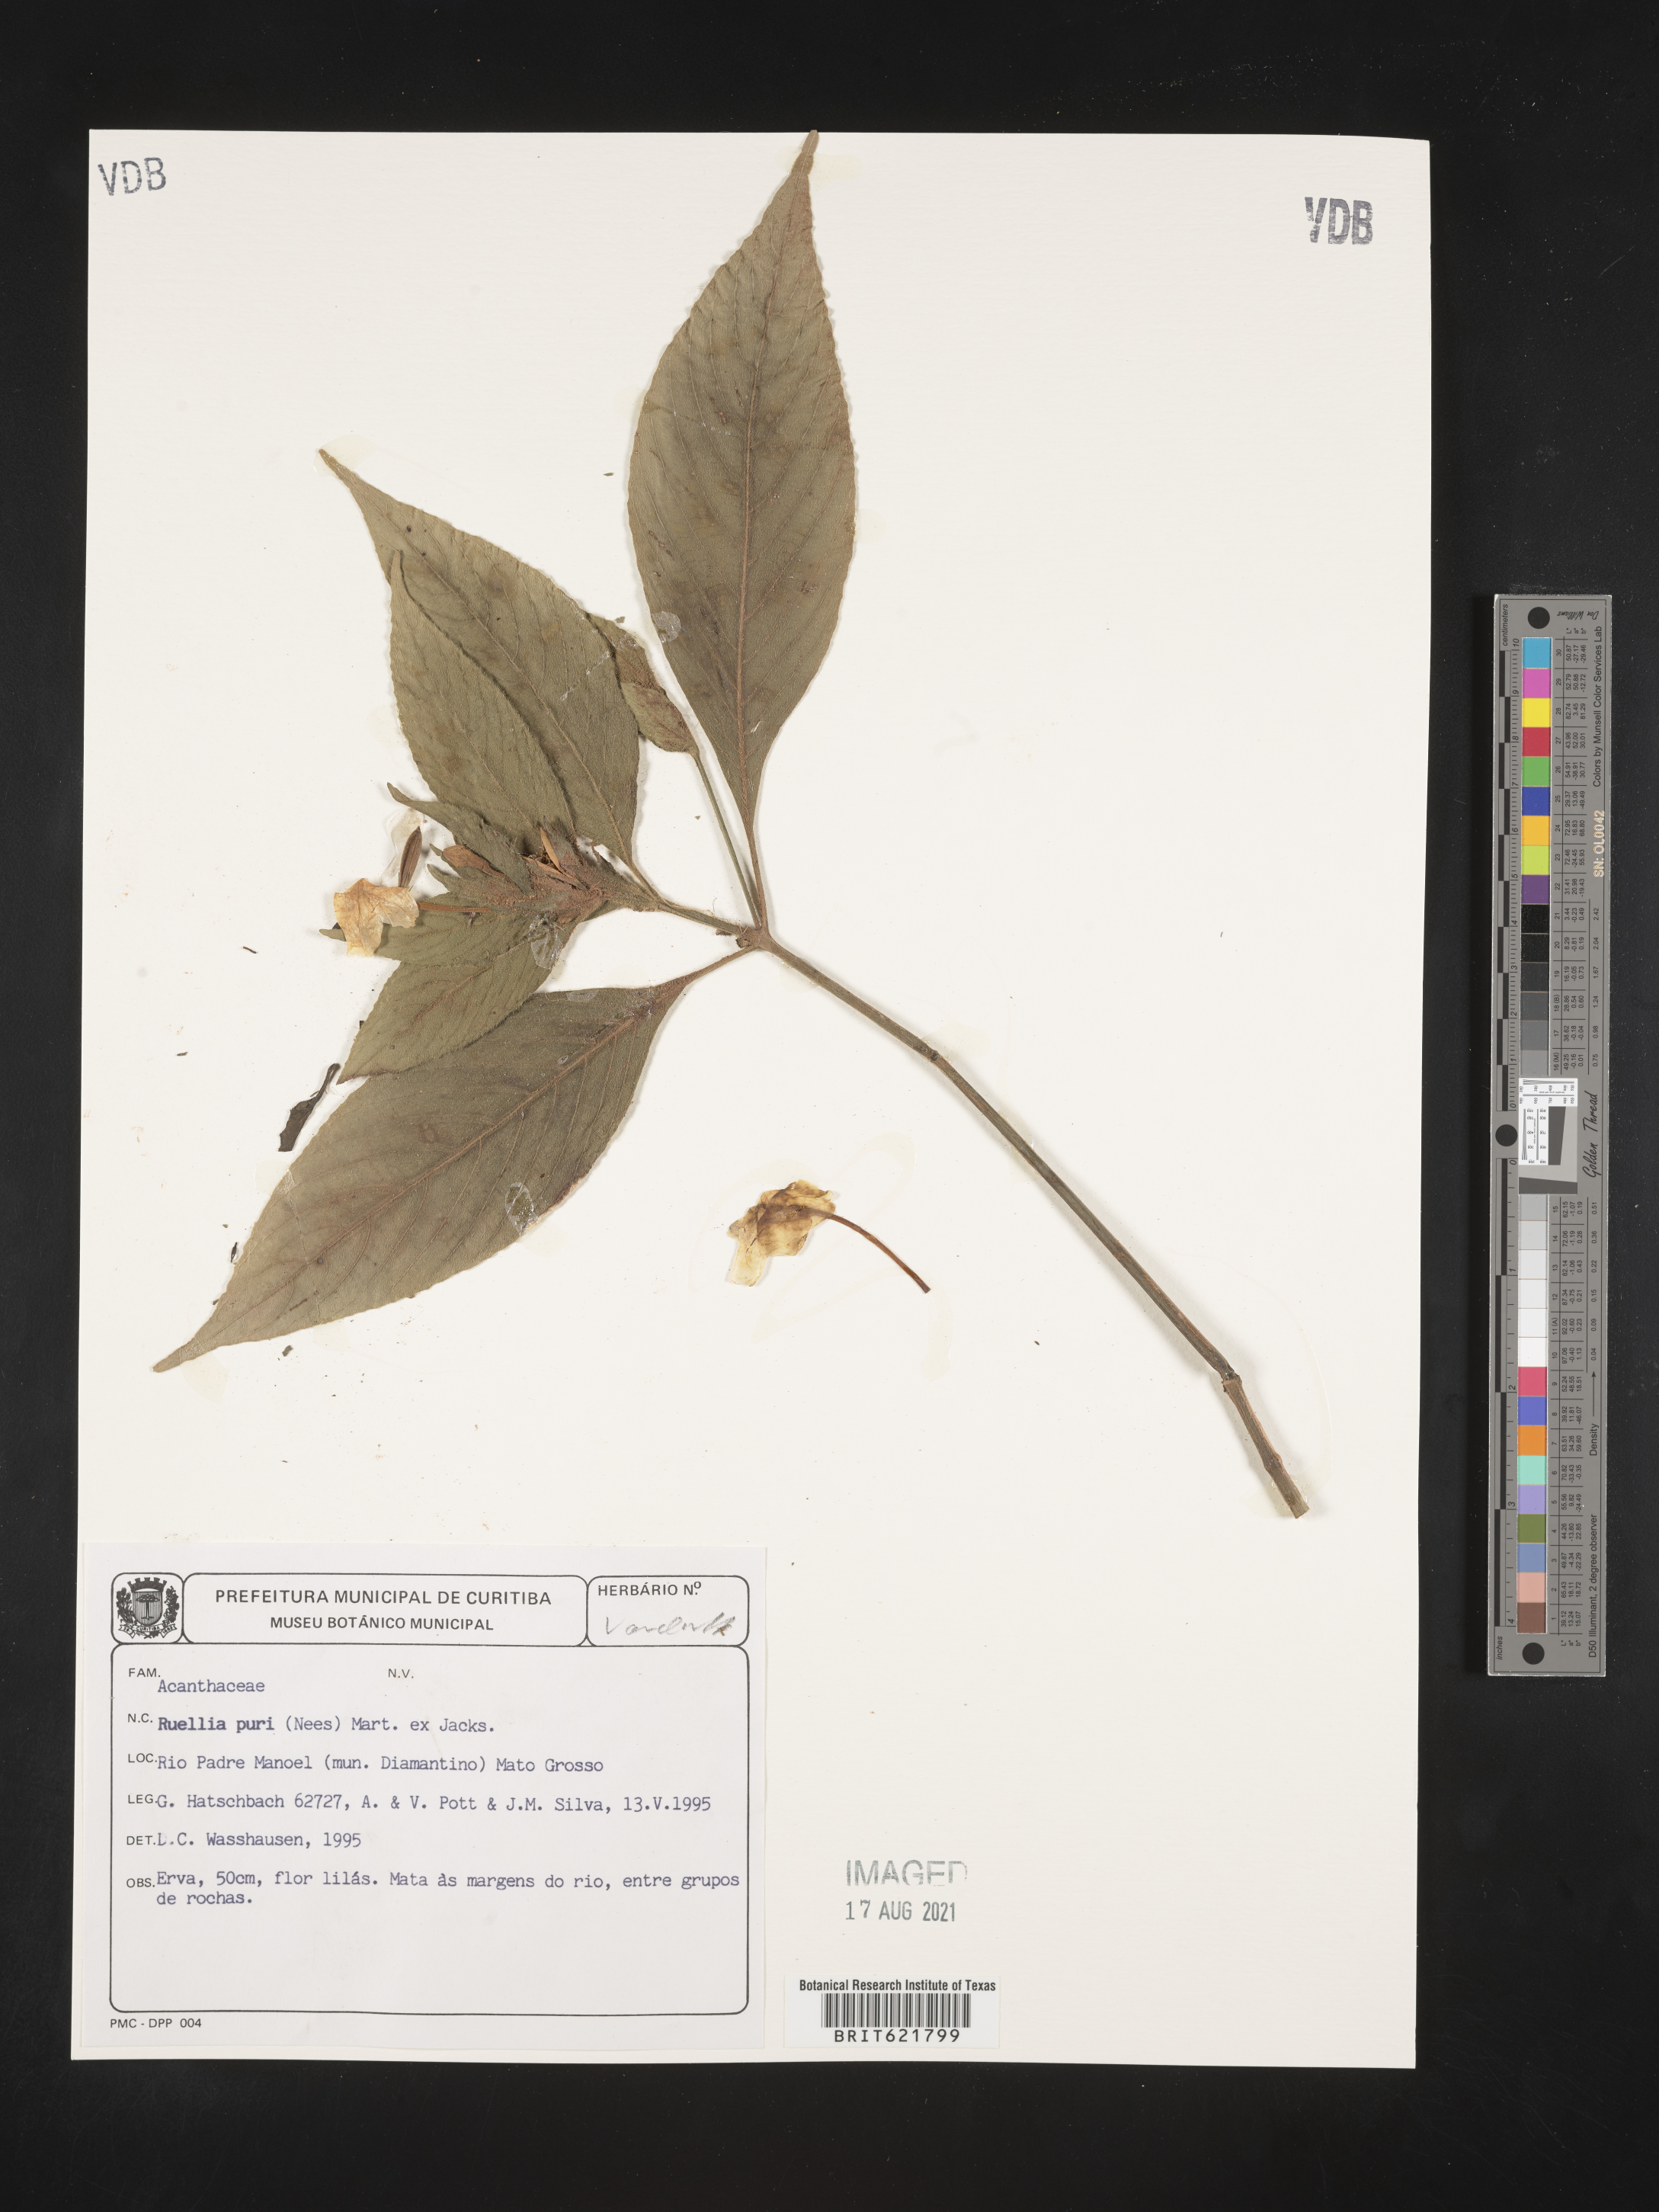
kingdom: Plantae
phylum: Tracheophyta
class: Magnoliopsida
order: Lamiales
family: Acanthaceae
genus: Ruellia
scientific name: Ruellia purii
